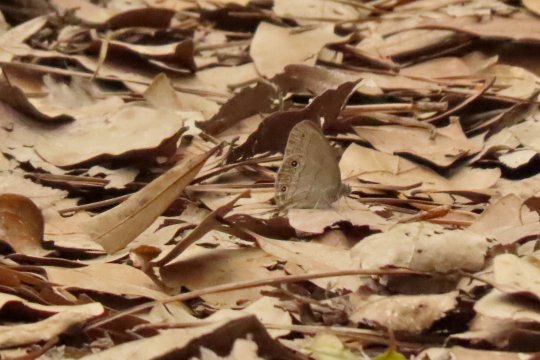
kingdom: Animalia
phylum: Arthropoda
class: Insecta
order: Lepidoptera
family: Nymphalidae
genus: Hermeuptychia
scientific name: Hermeuptychia hermes
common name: Carolina Satyr
